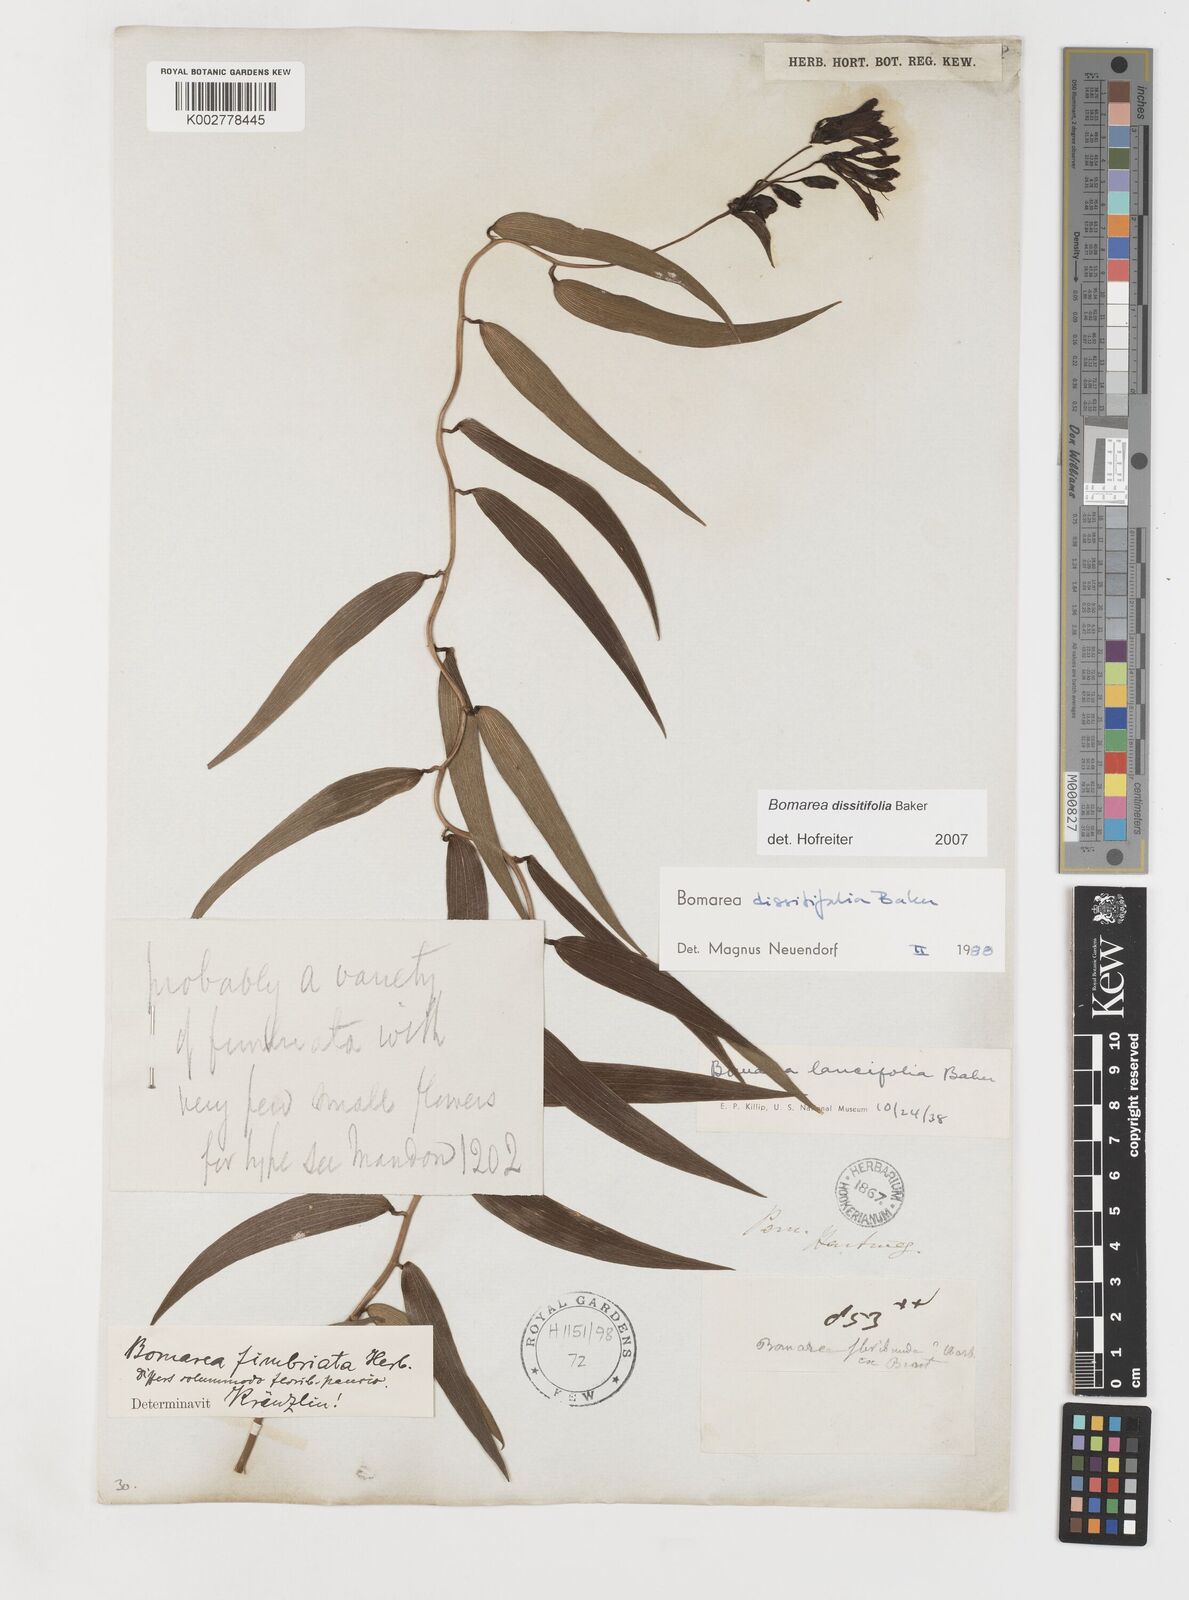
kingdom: Plantae
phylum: Tracheophyta
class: Liliopsida
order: Liliales
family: Alstroemeriaceae
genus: Bomarea
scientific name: Bomarea dissitifolia
